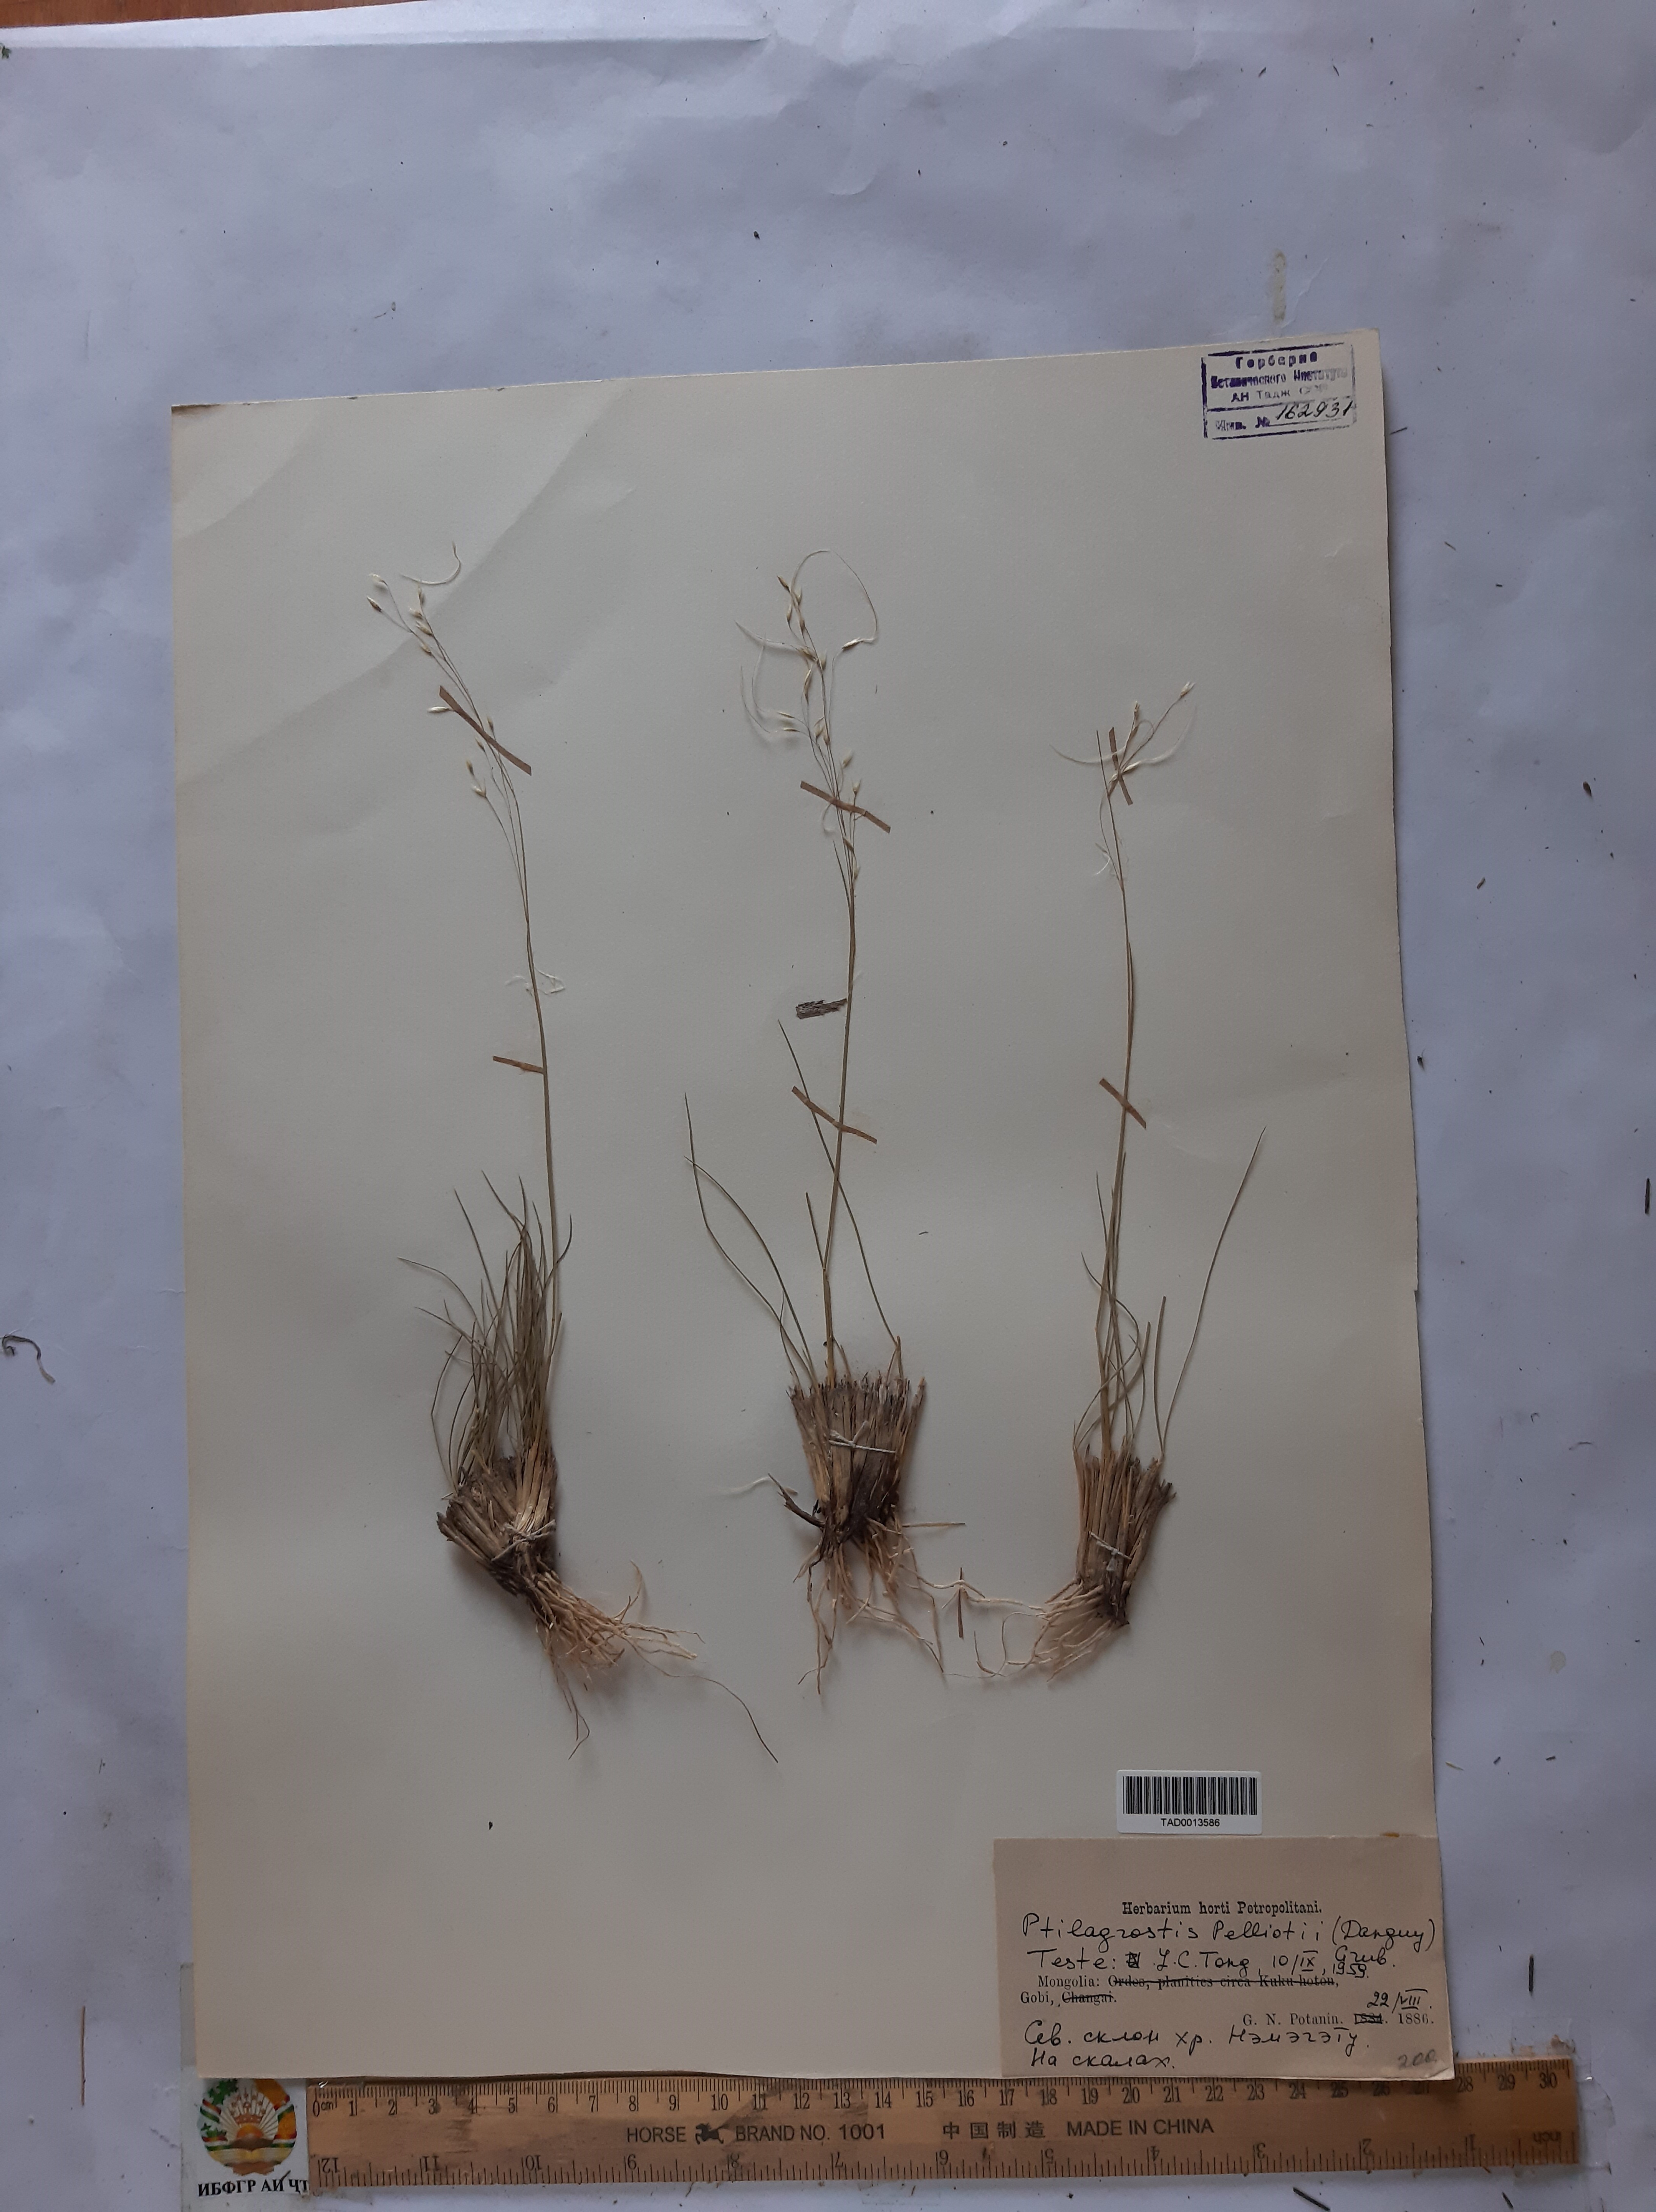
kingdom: Plantae
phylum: Tracheophyta
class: Liliopsida
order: Poales
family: Poaceae
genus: Ptilagrostis
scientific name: Ptilagrostis
